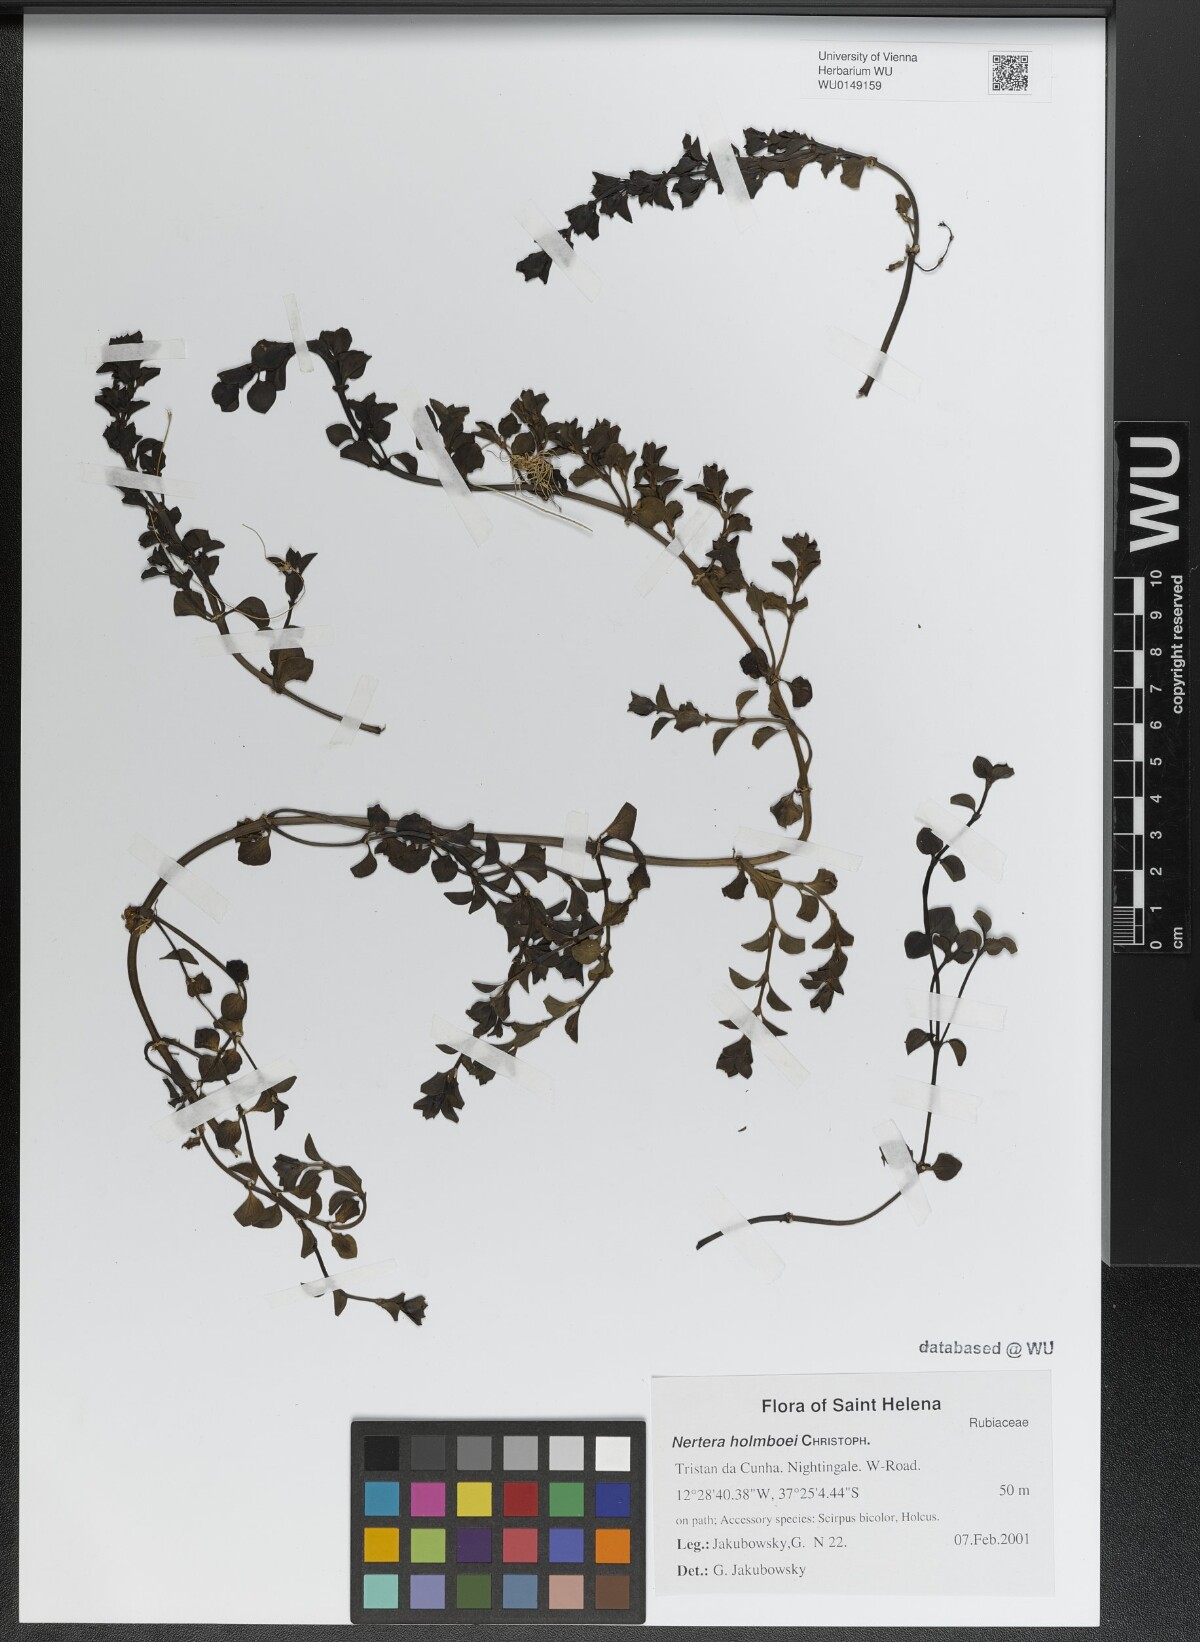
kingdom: Plantae
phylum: Tracheophyta
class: Magnoliopsida
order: Gentianales
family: Rubiaceae
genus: Nertera
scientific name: Nertera holmboei
